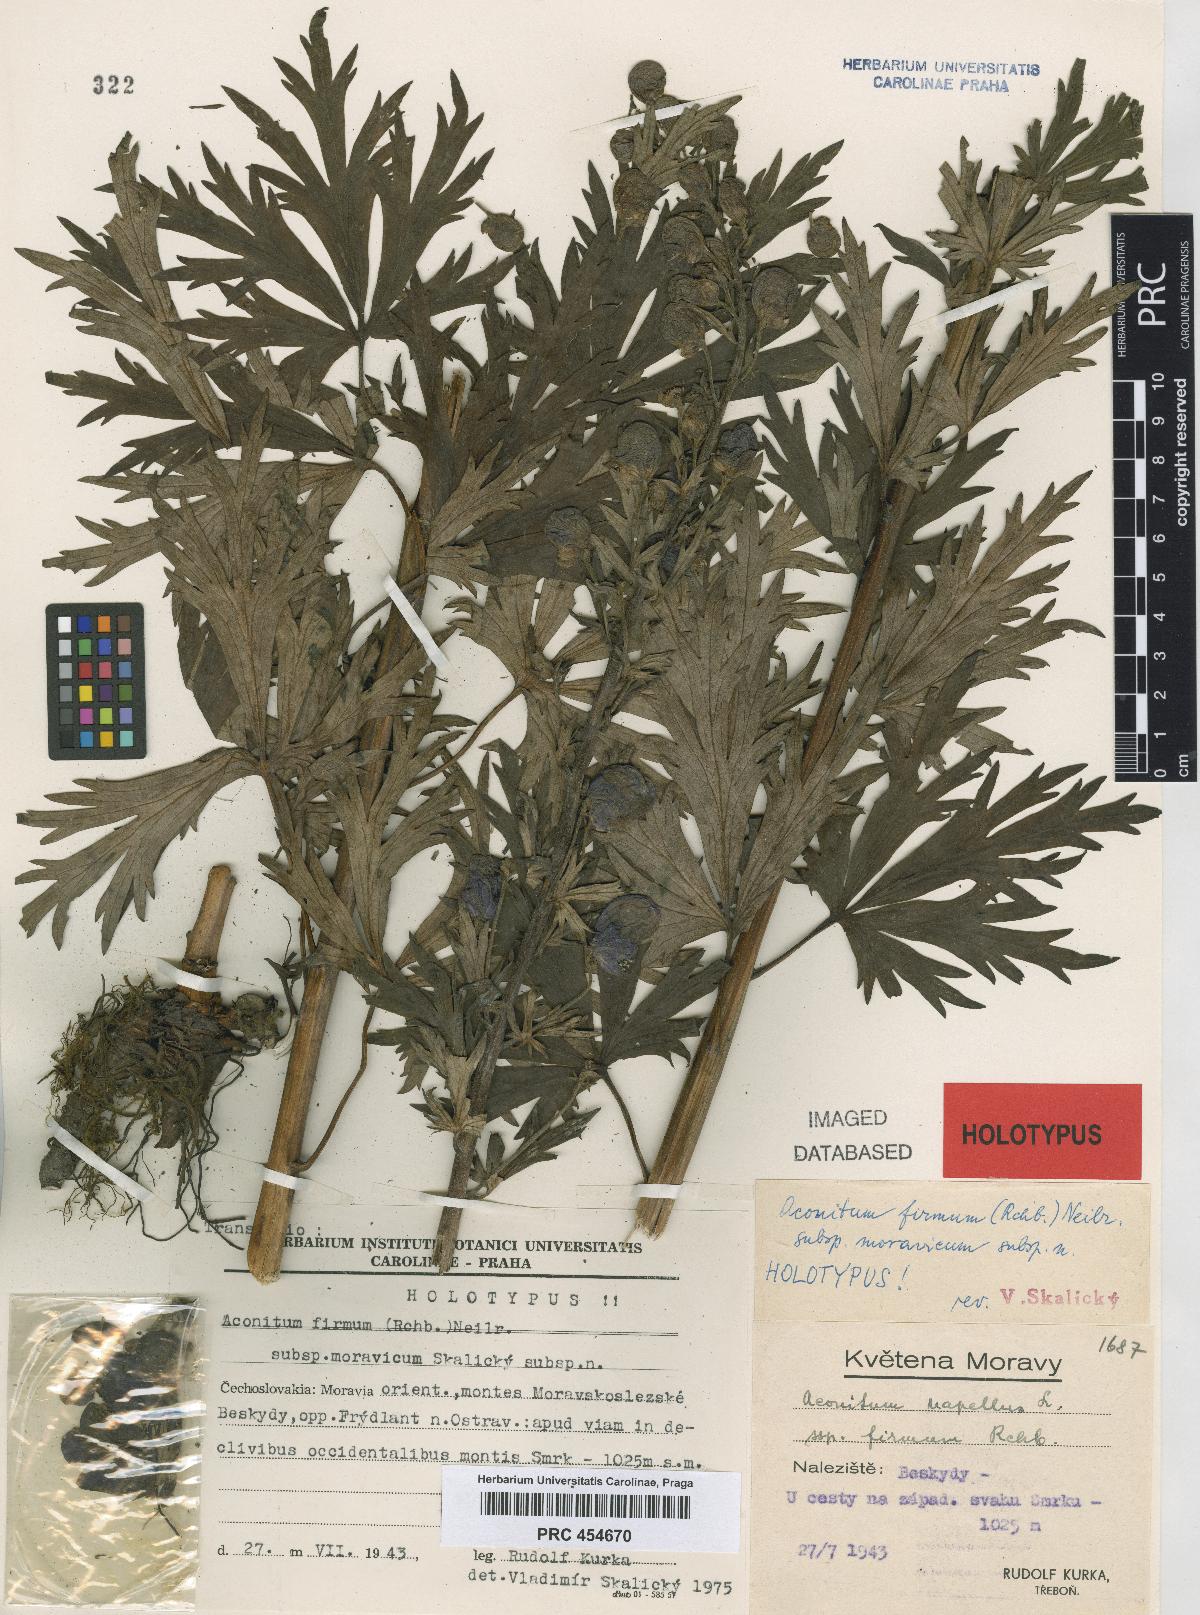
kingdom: Plantae
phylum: Tracheophyta
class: Magnoliopsida
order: Ranunculales
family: Ranunculaceae
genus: Aconitum
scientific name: Aconitum firmum
